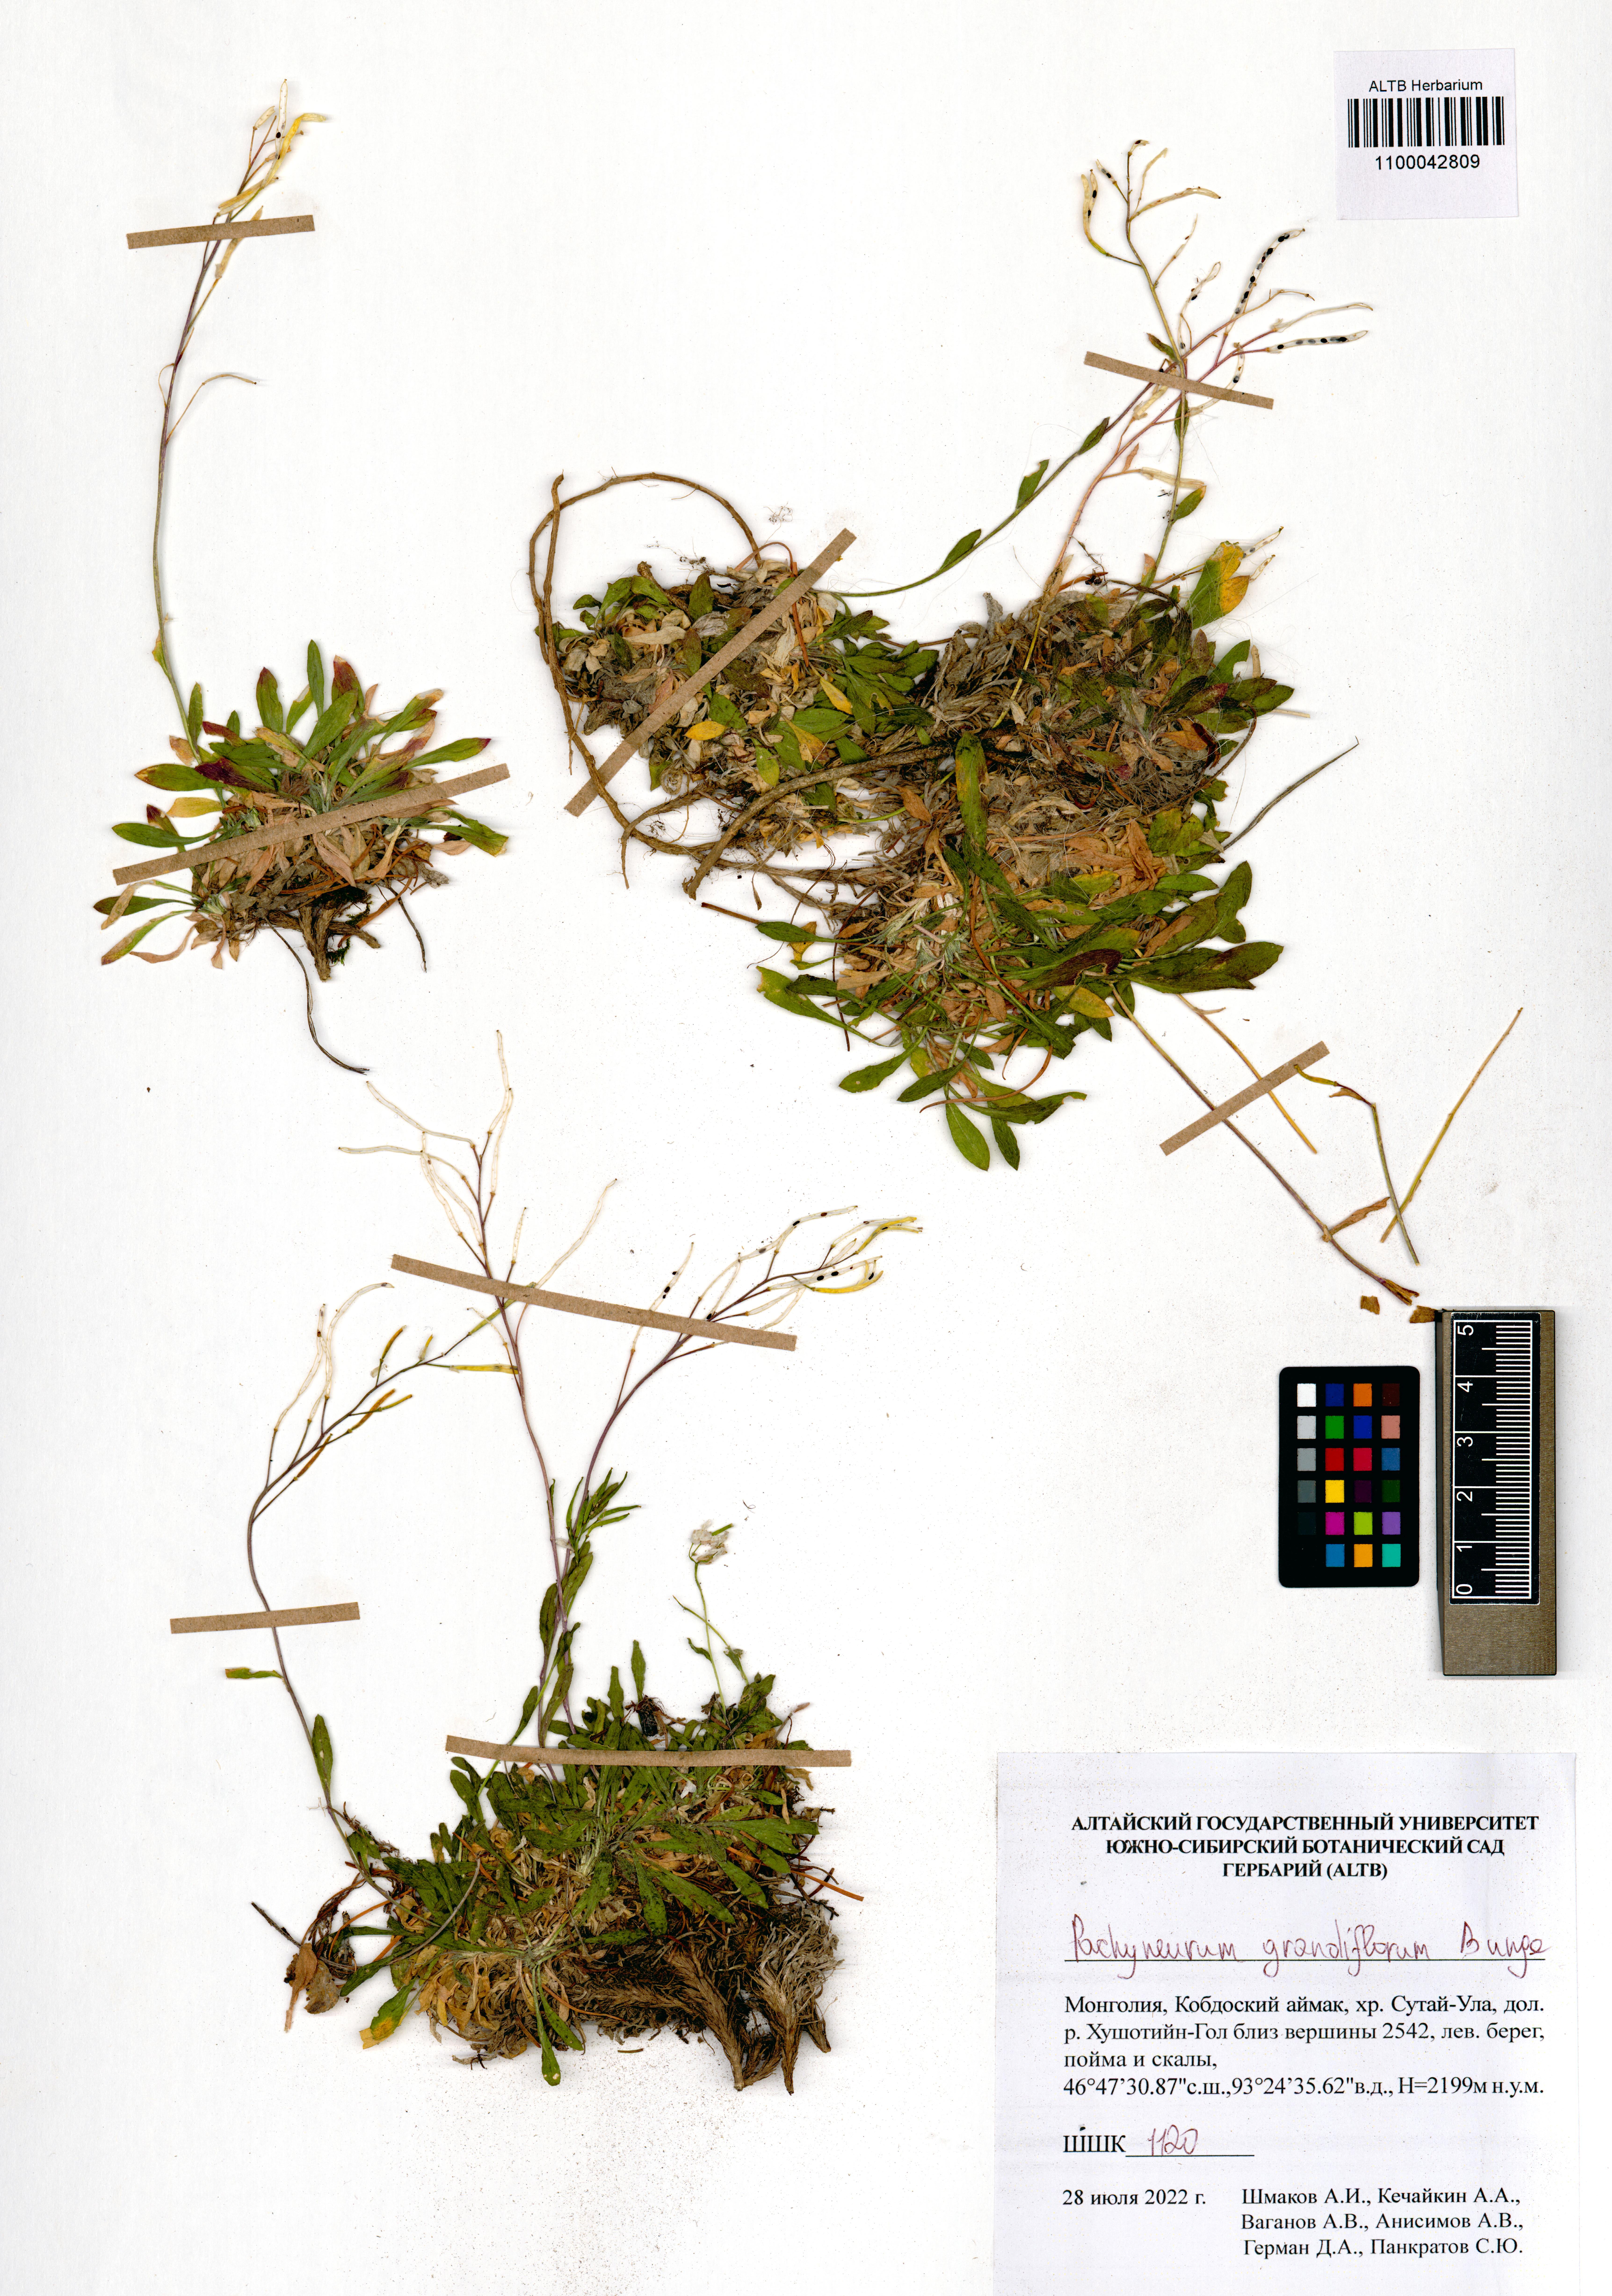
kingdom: Plantae
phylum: Tracheophyta
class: Magnoliopsida
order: Brassicales
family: Brassicaceae
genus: Pachyneurum
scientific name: Pachyneurum grandiflorum
